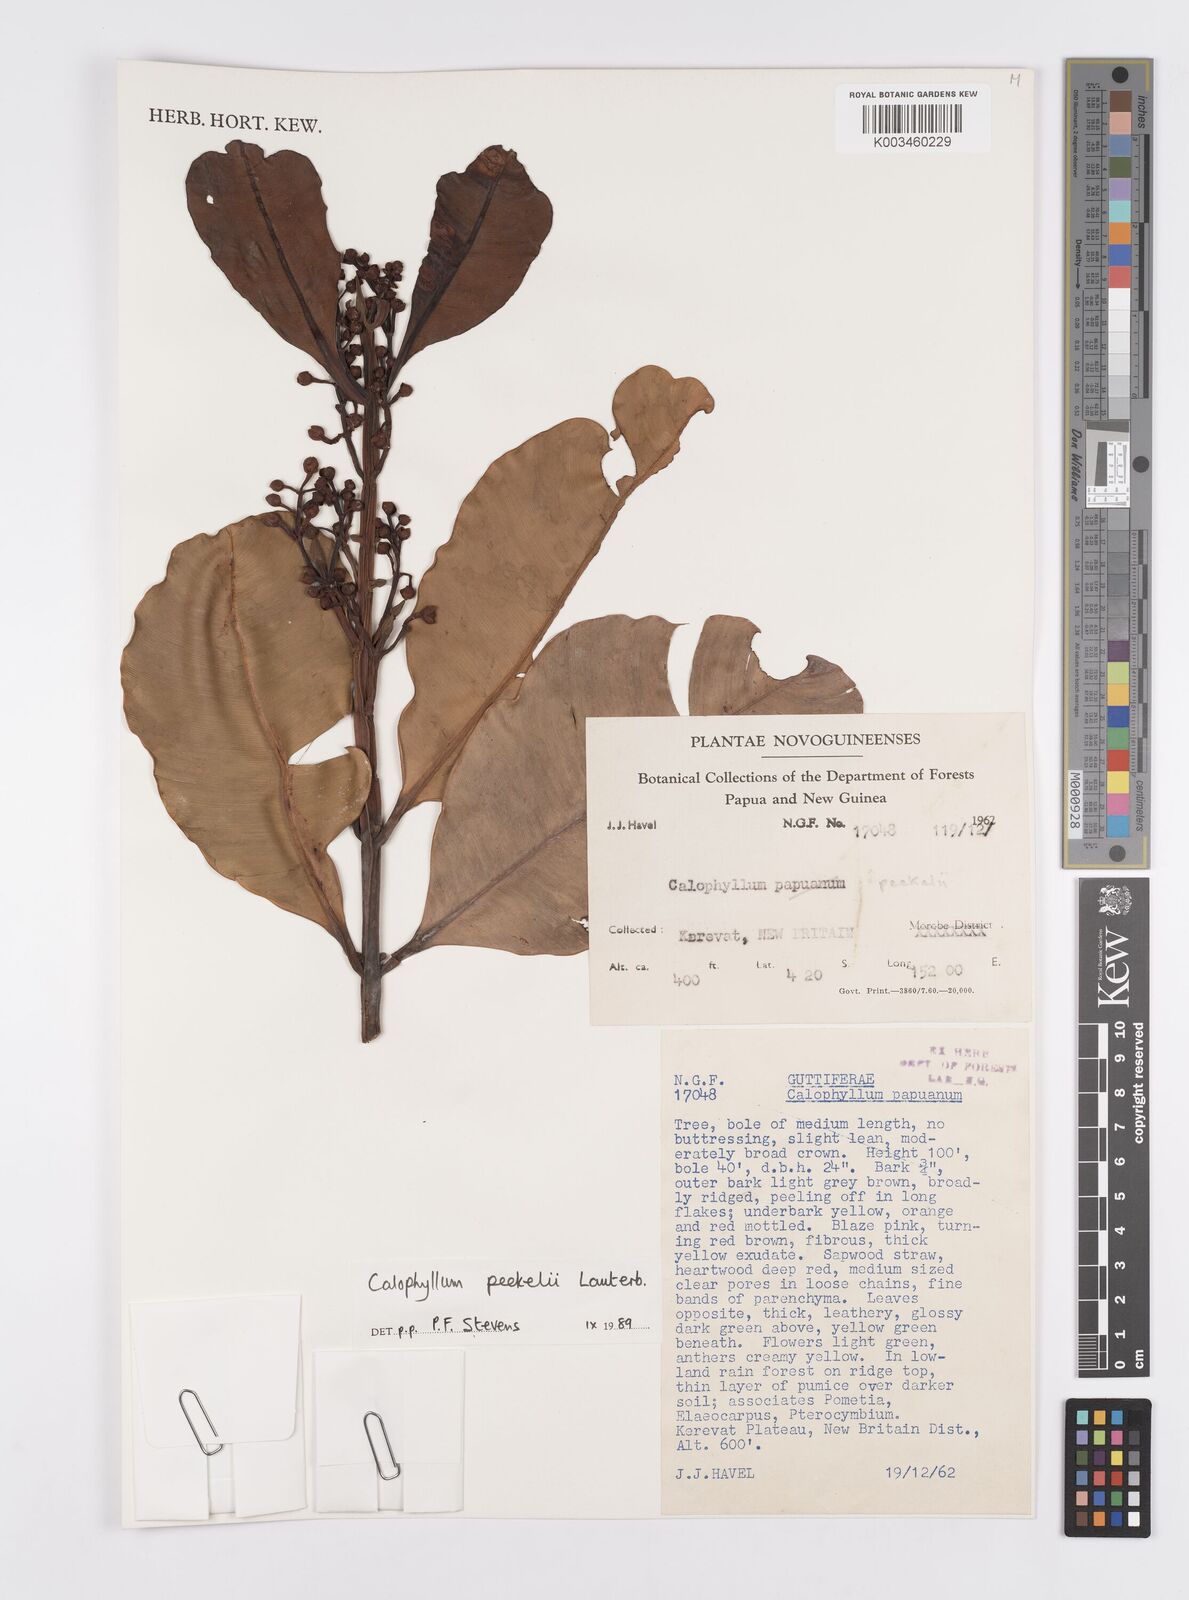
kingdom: Plantae
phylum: Tracheophyta
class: Magnoliopsida
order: Malpighiales
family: Calophyllaceae
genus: Calophyllum
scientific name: Calophyllum peekelii
